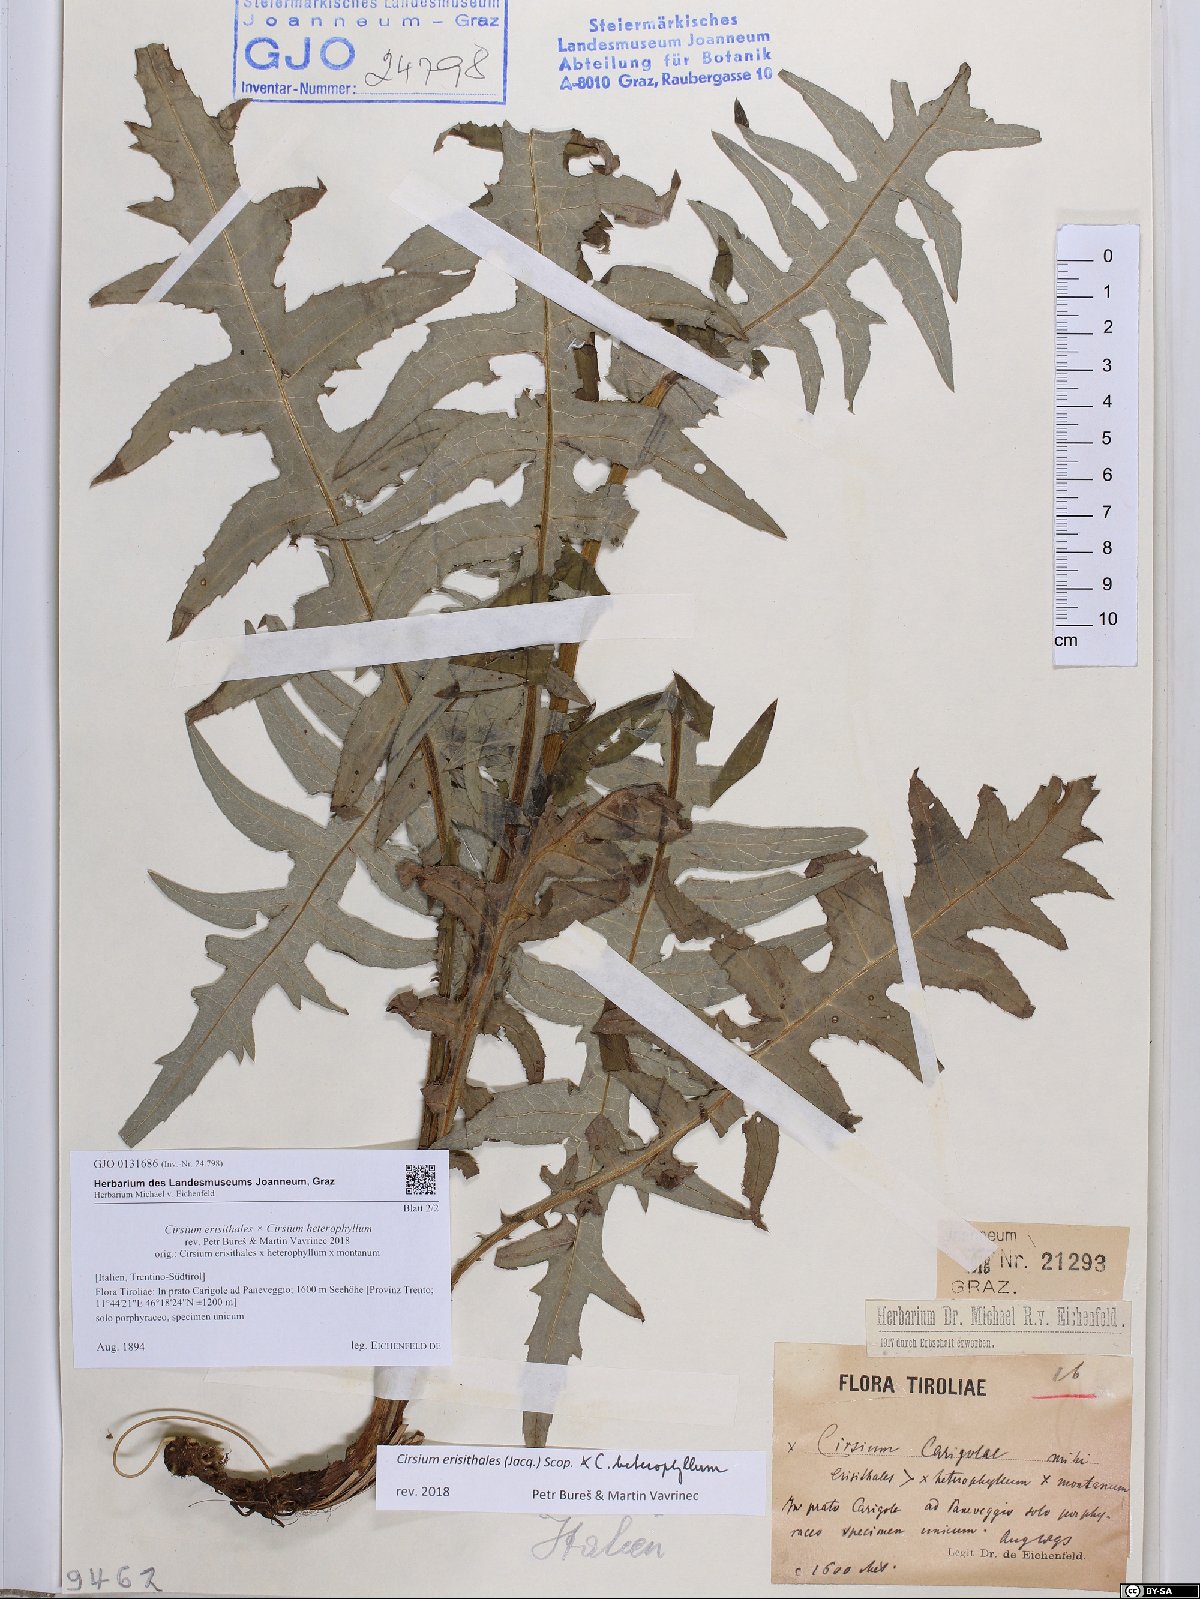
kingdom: Plantae
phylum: Tracheophyta
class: Magnoliopsida
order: Asterales
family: Asteraceae
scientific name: Asteraceae
